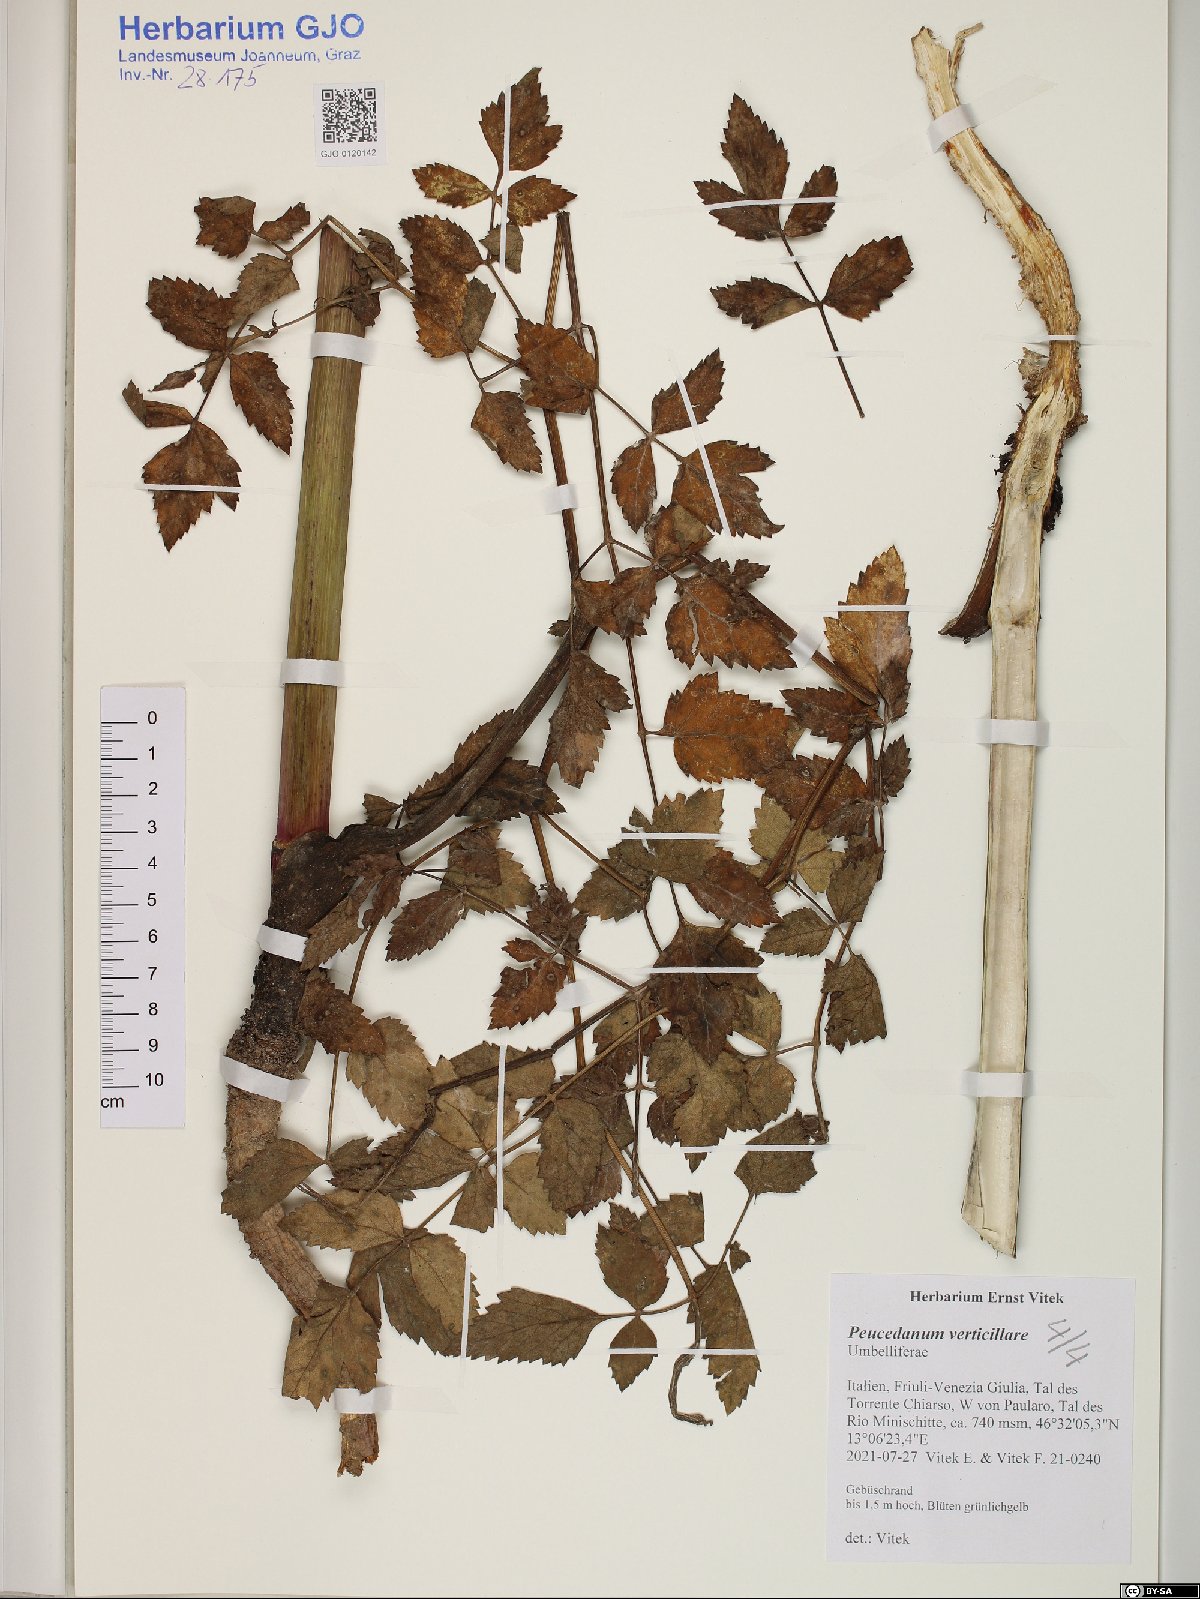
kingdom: Plantae
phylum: Tracheophyta
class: Magnoliopsida
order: Apiales
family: Apiaceae
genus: Tommasinia
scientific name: Tommasinia altissima
